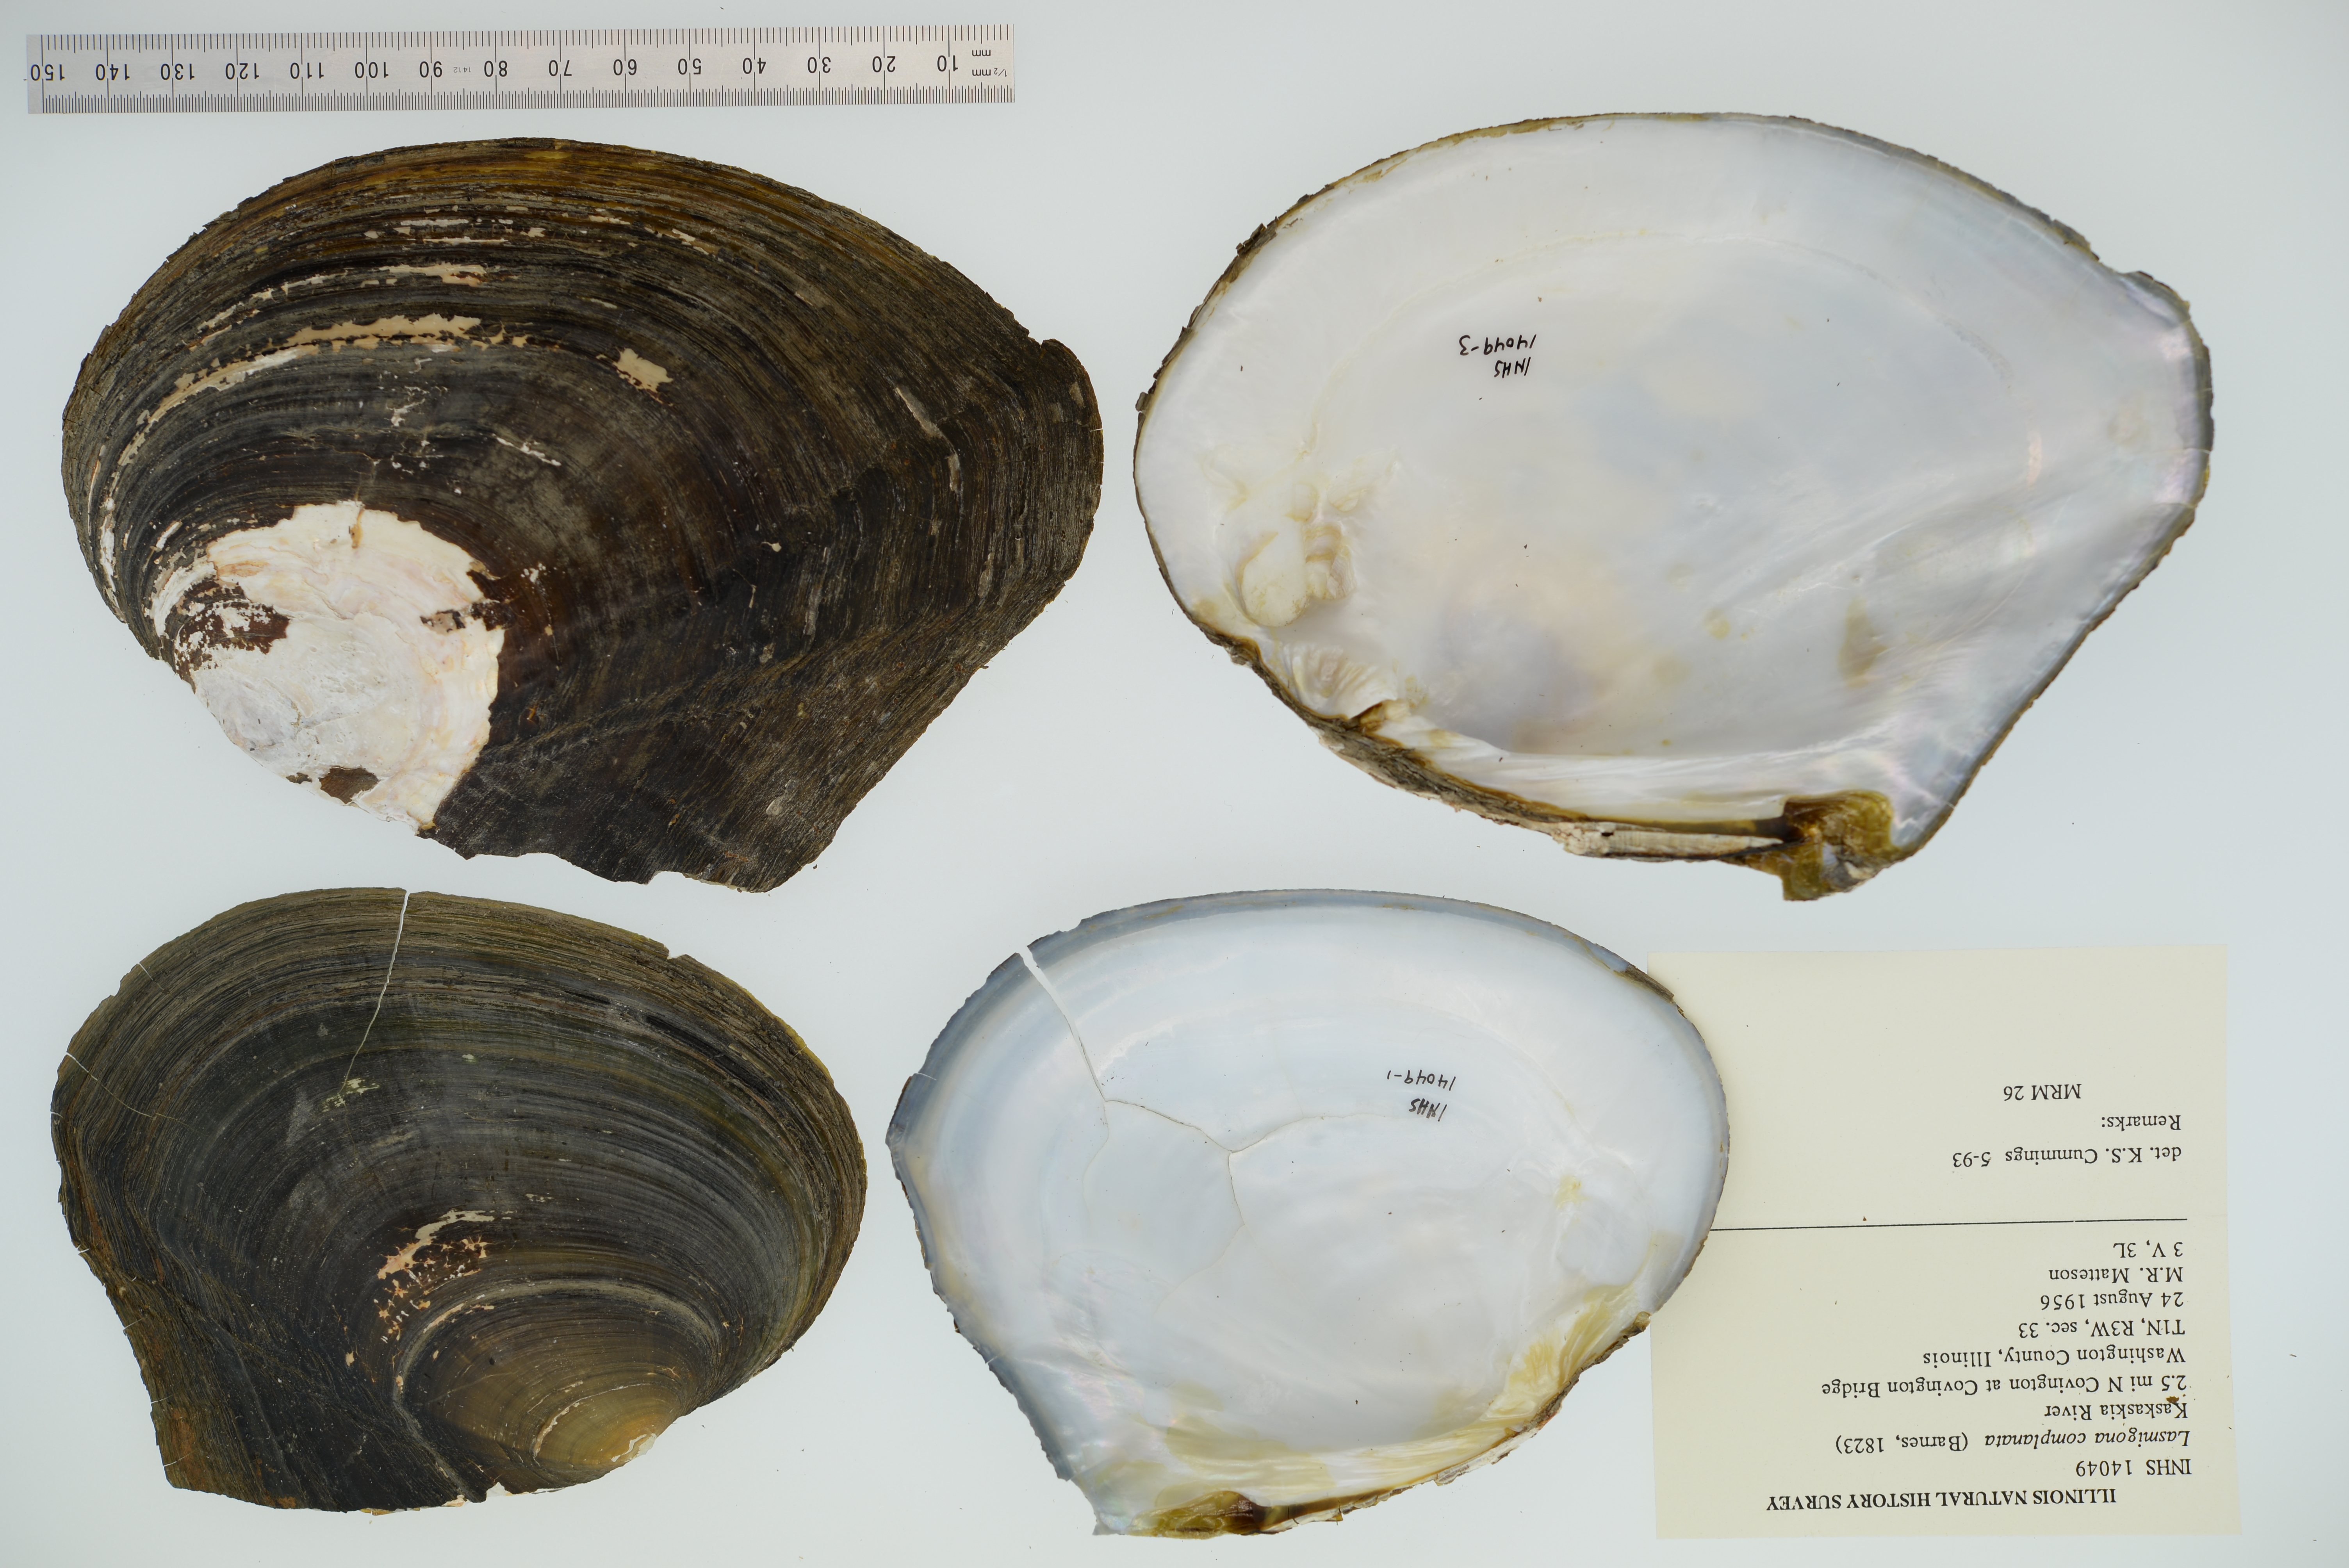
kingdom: Animalia
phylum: Mollusca
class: Bivalvia
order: Unionida
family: Unionidae
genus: Lasmigona
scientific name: Lasmigona complanata
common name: White heelsplitter
